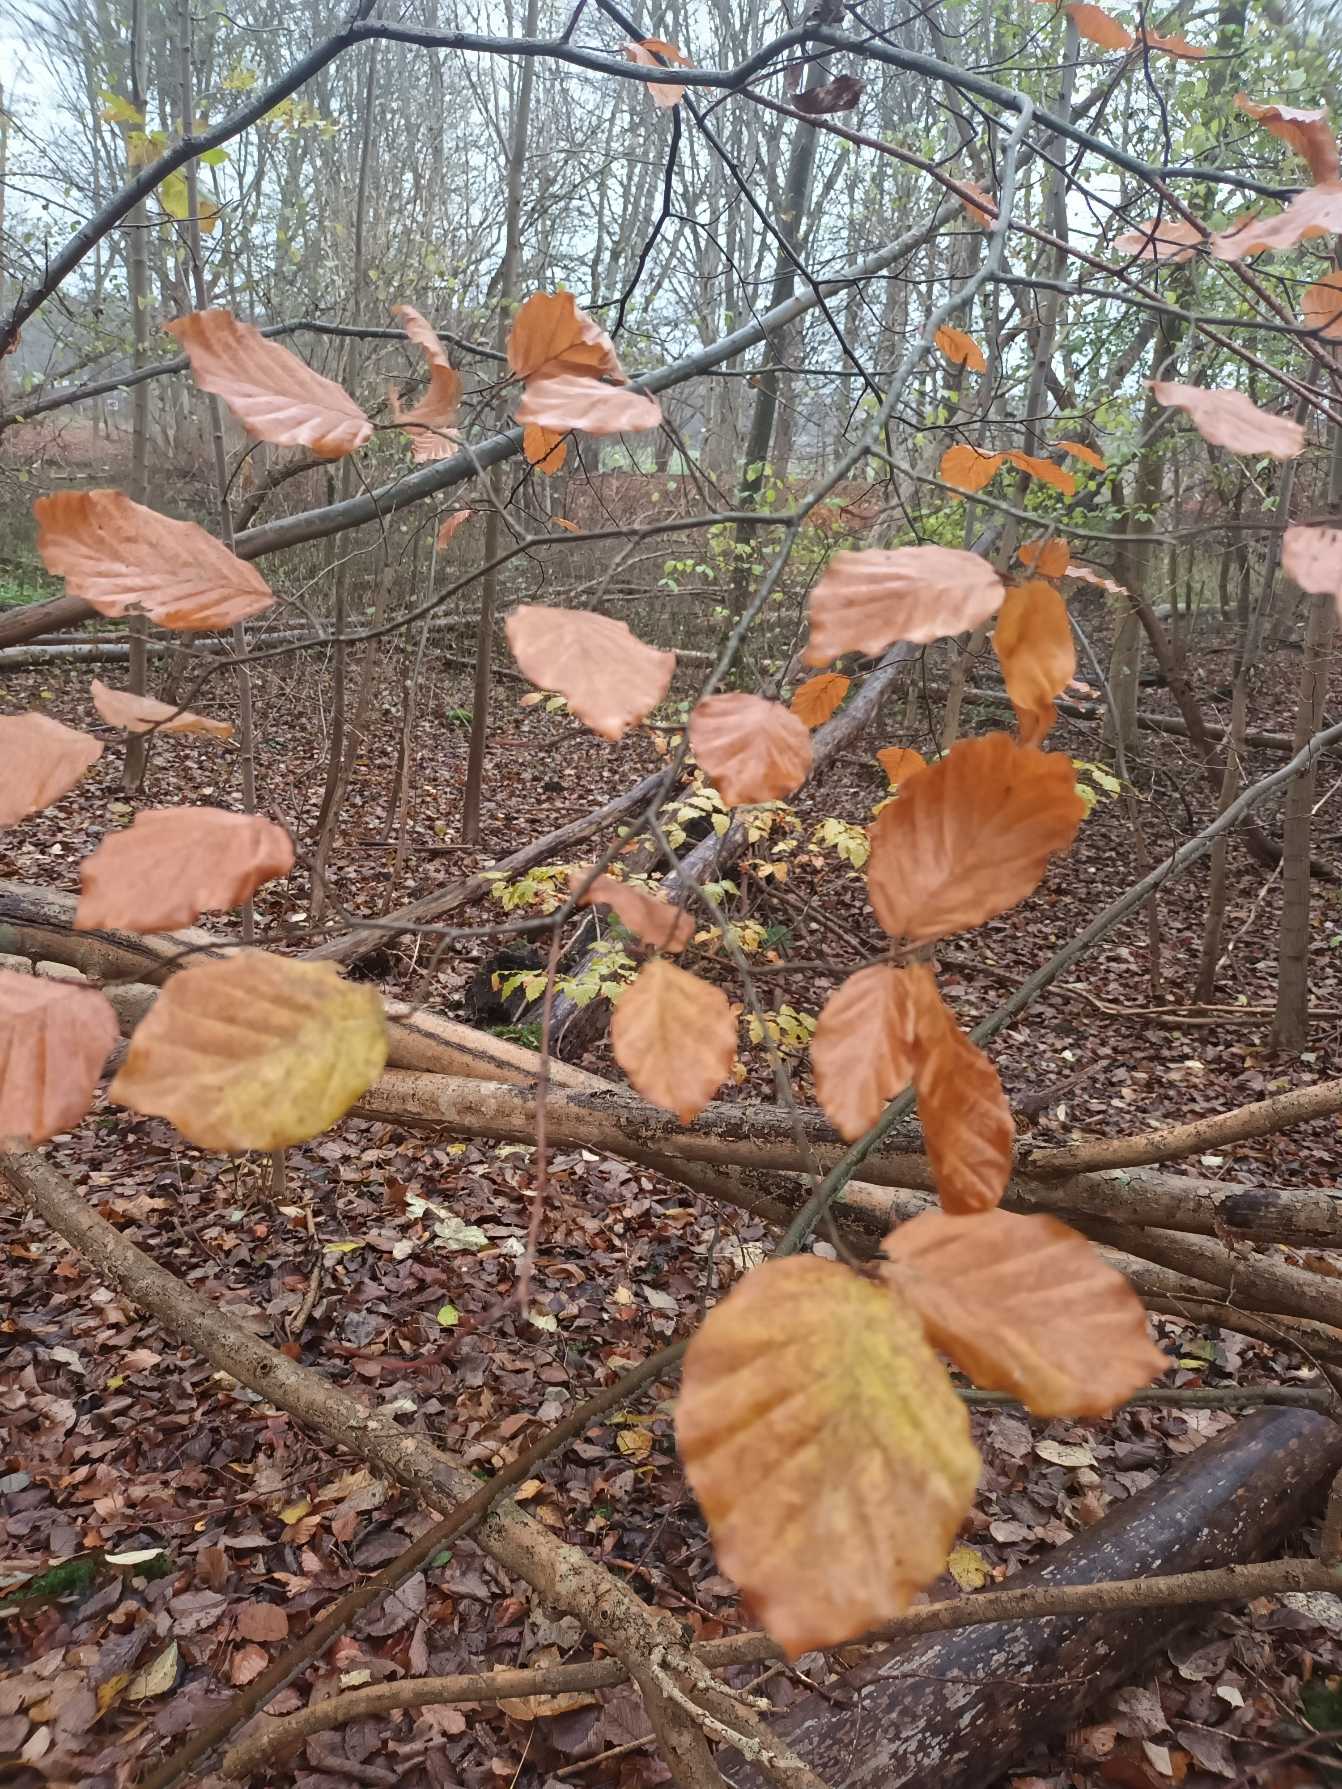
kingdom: Plantae
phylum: Tracheophyta
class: Magnoliopsida
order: Fagales
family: Fagaceae
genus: Fagus
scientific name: Fagus sylvatica
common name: Bøg
